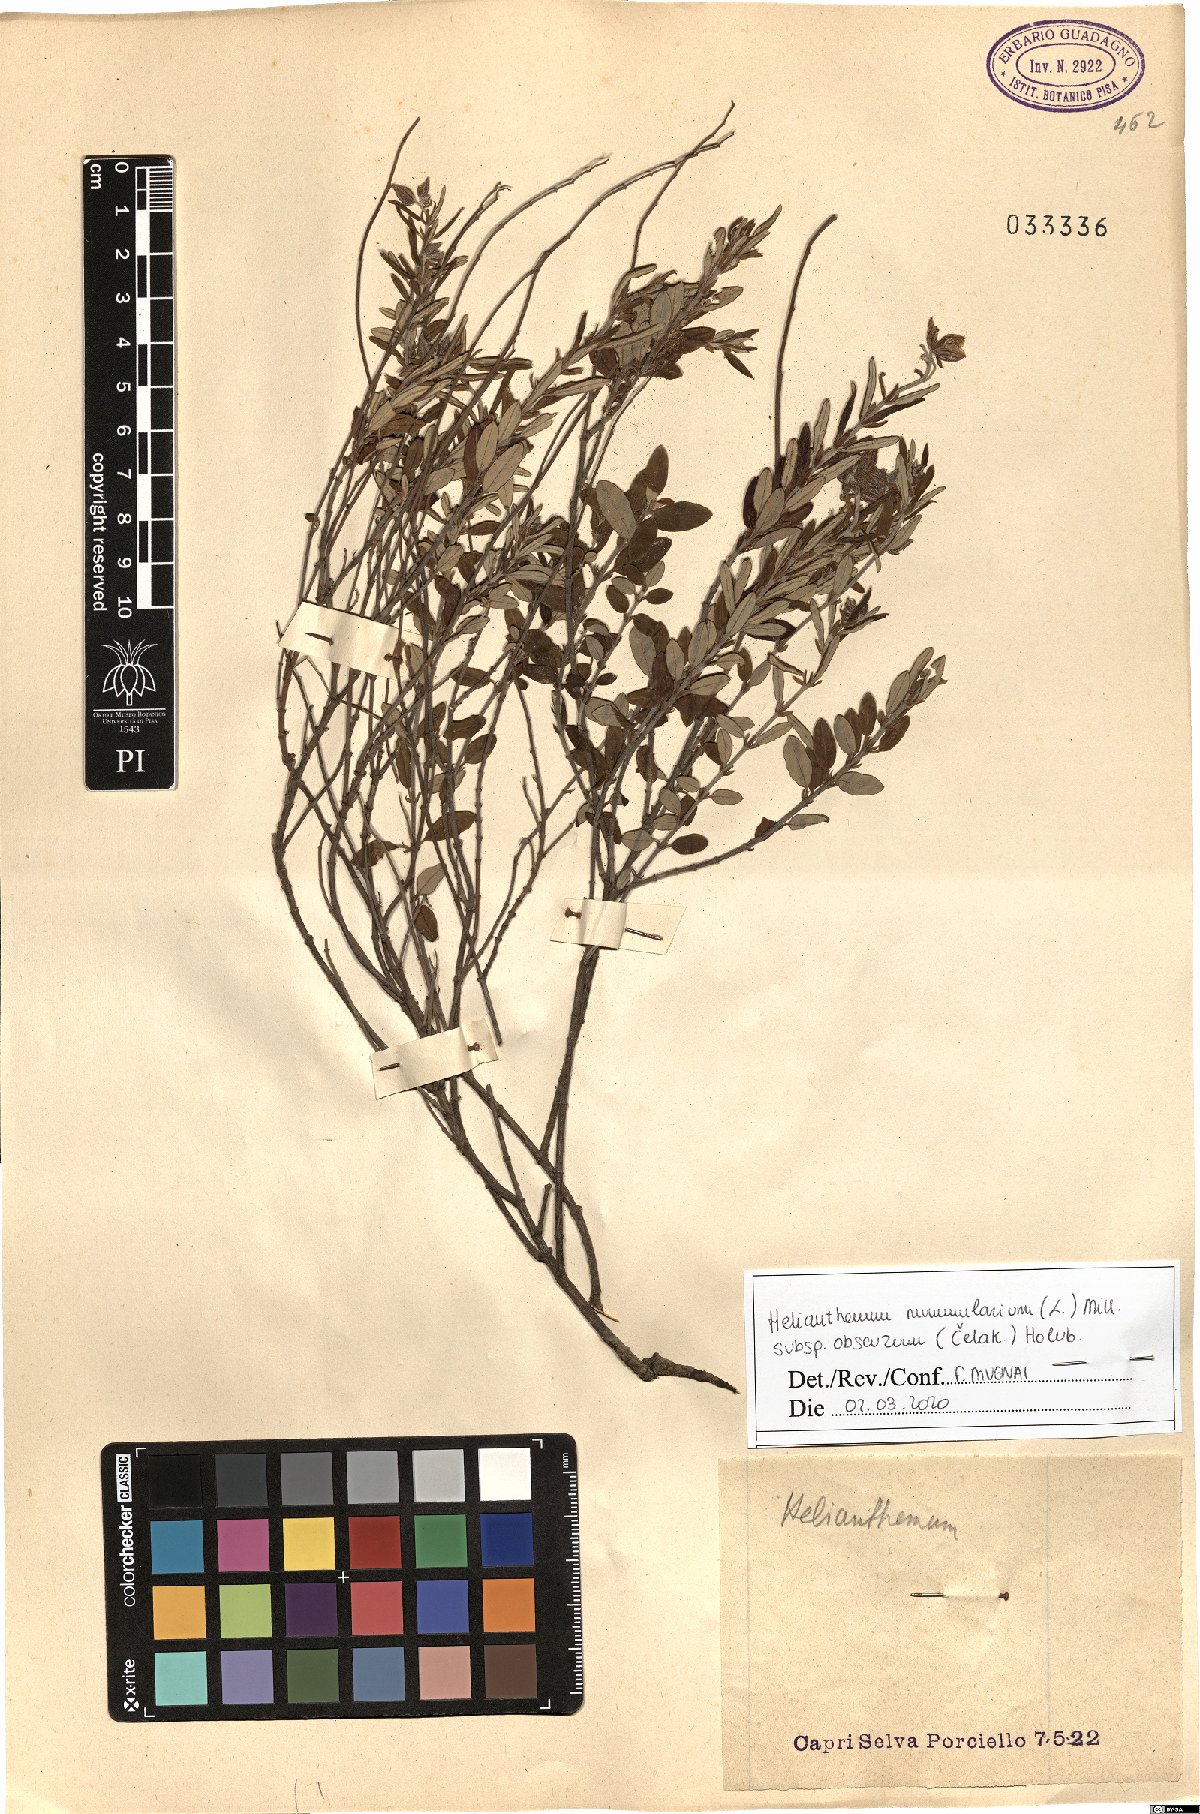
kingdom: Plantae
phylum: Tracheophyta
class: Magnoliopsida
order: Malvales
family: Cistaceae
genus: Helianthemum
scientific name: Helianthemum nummularium
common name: Common rock-rose
